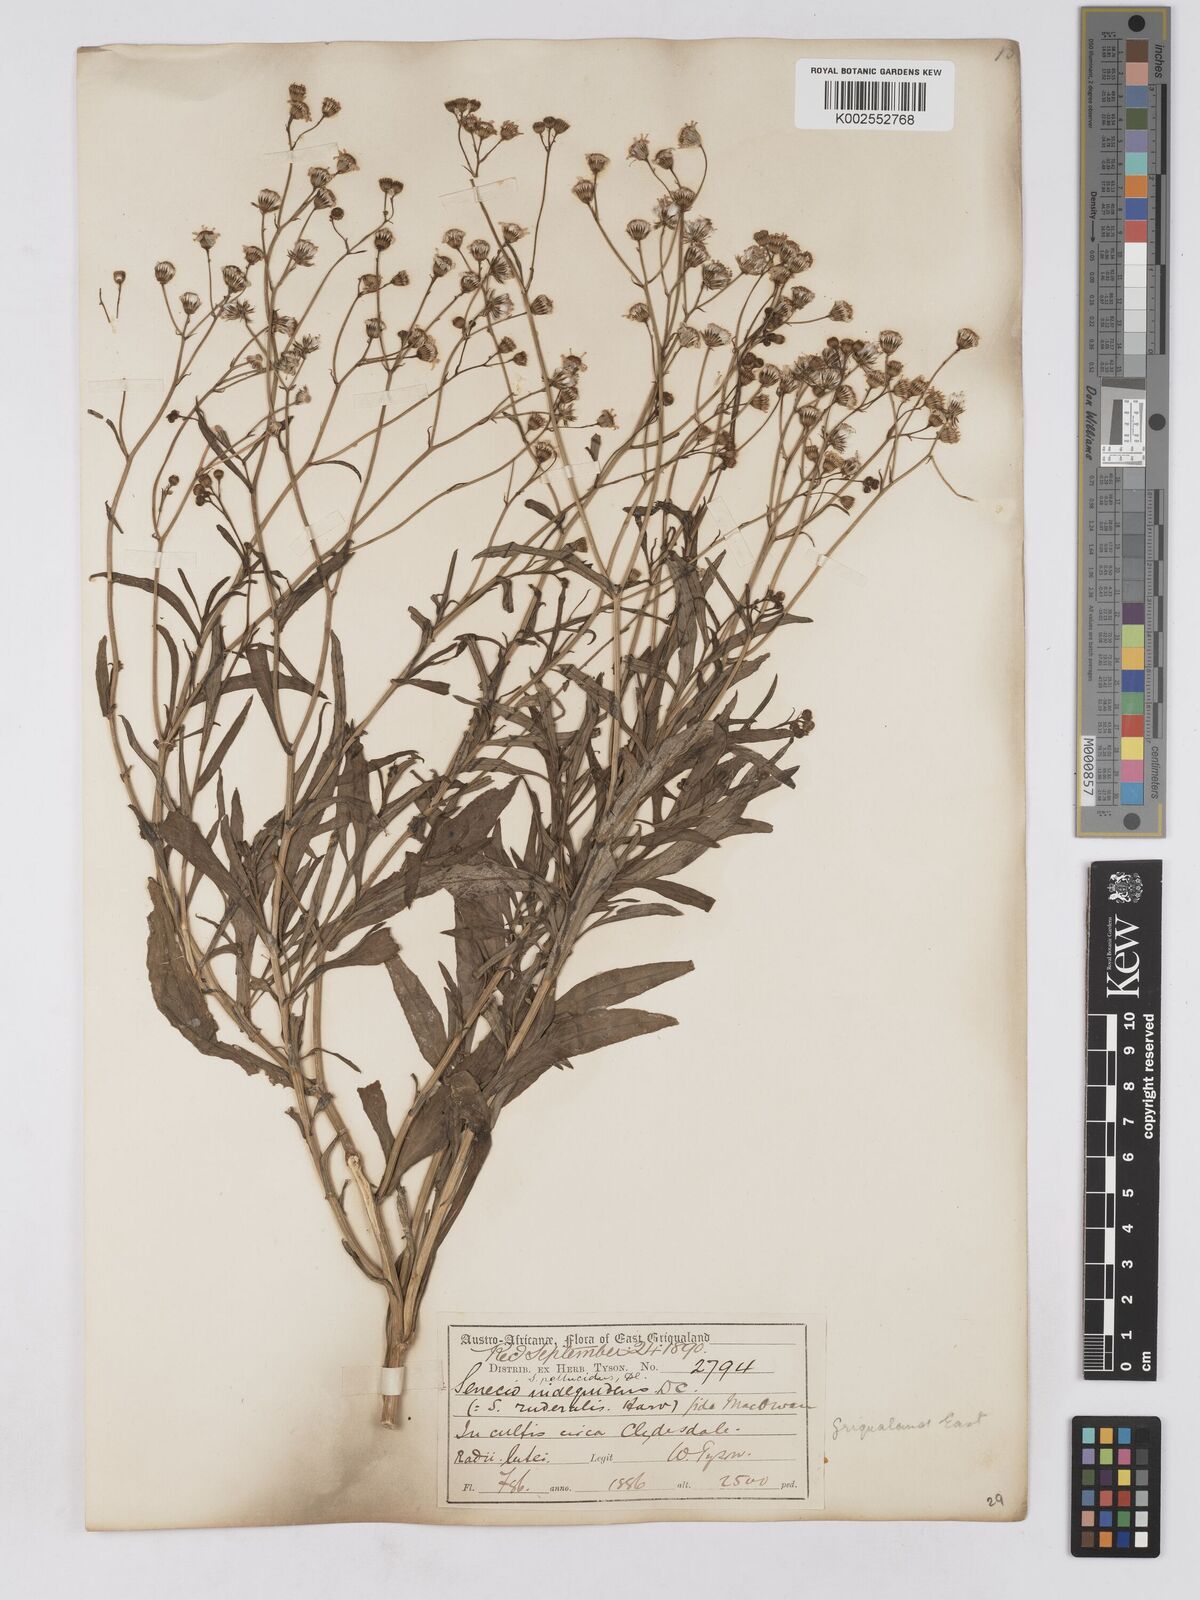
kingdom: Plantae
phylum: Tracheophyta
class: Magnoliopsida
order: Asterales
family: Asteraceae
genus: Senecio
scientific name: Senecio madagascariensis
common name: Madagascar ragwort
